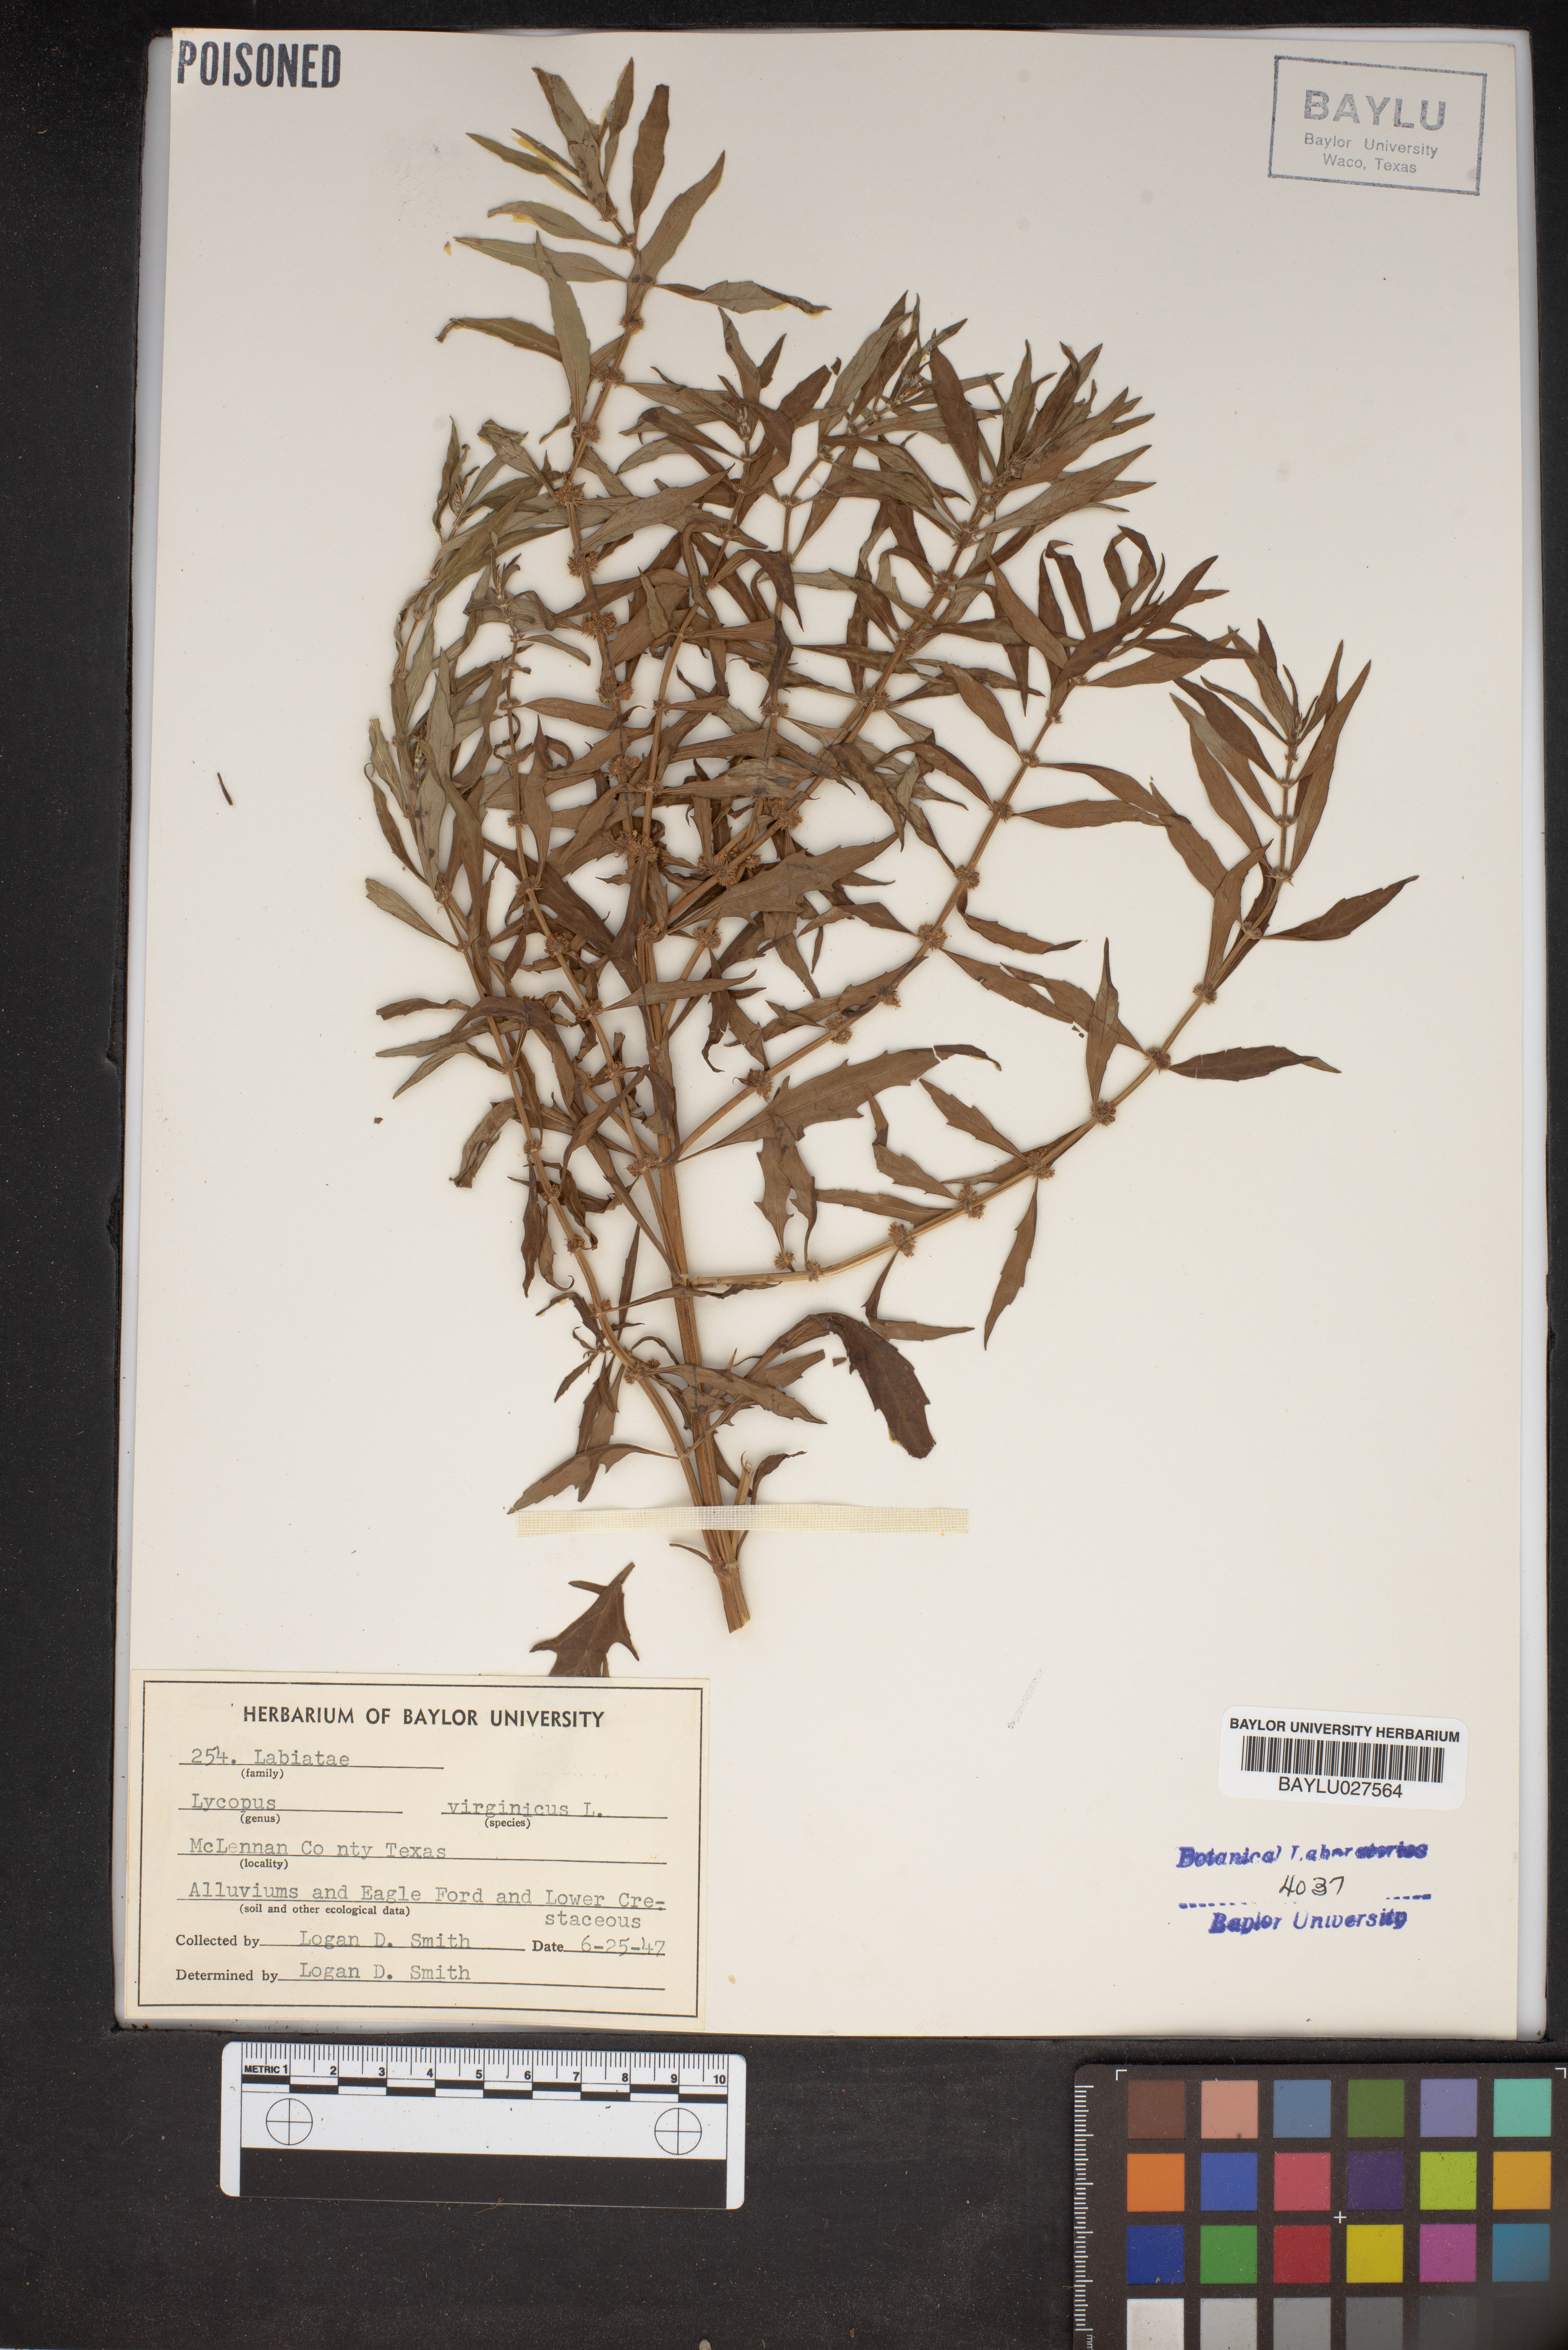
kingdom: Plantae
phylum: Tracheophyta
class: Magnoliopsida
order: Lamiales
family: Lamiaceae
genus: Lycopus
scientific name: Lycopus virginicus
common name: Bugleweed
